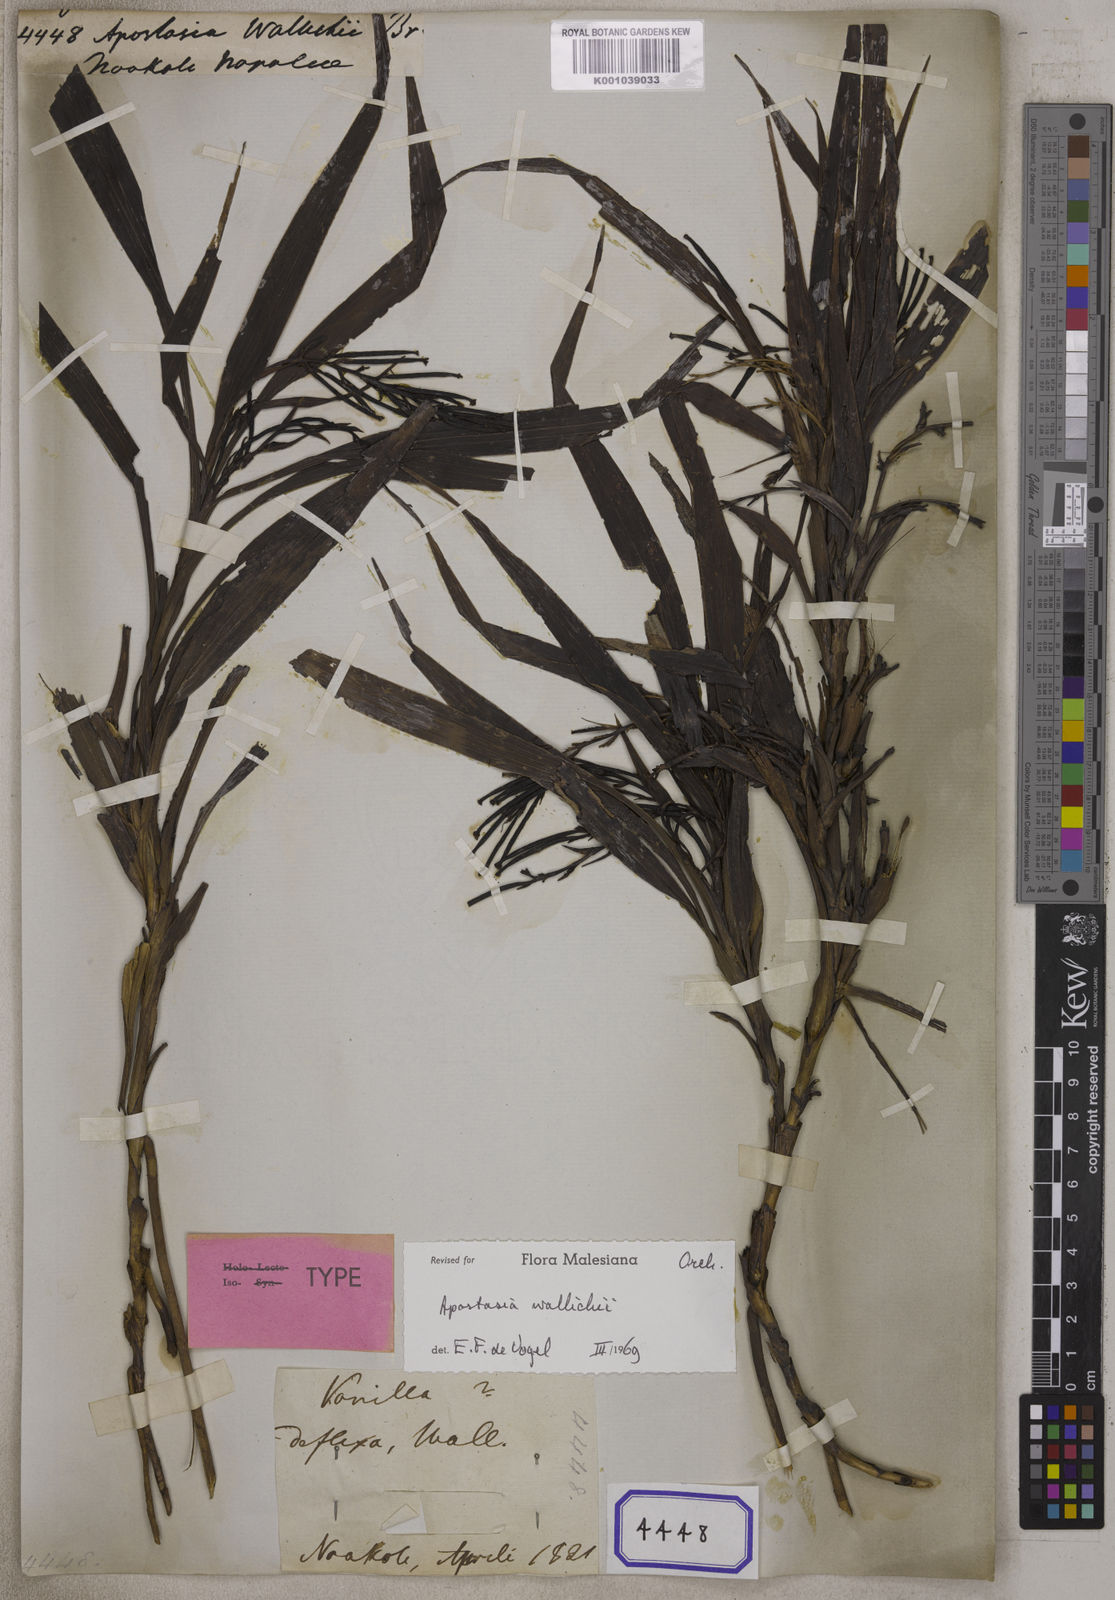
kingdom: Plantae
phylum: Tracheophyta
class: Liliopsida
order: Asparagales
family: Orchidaceae
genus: Apostasia
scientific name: Apostasia wallichii
